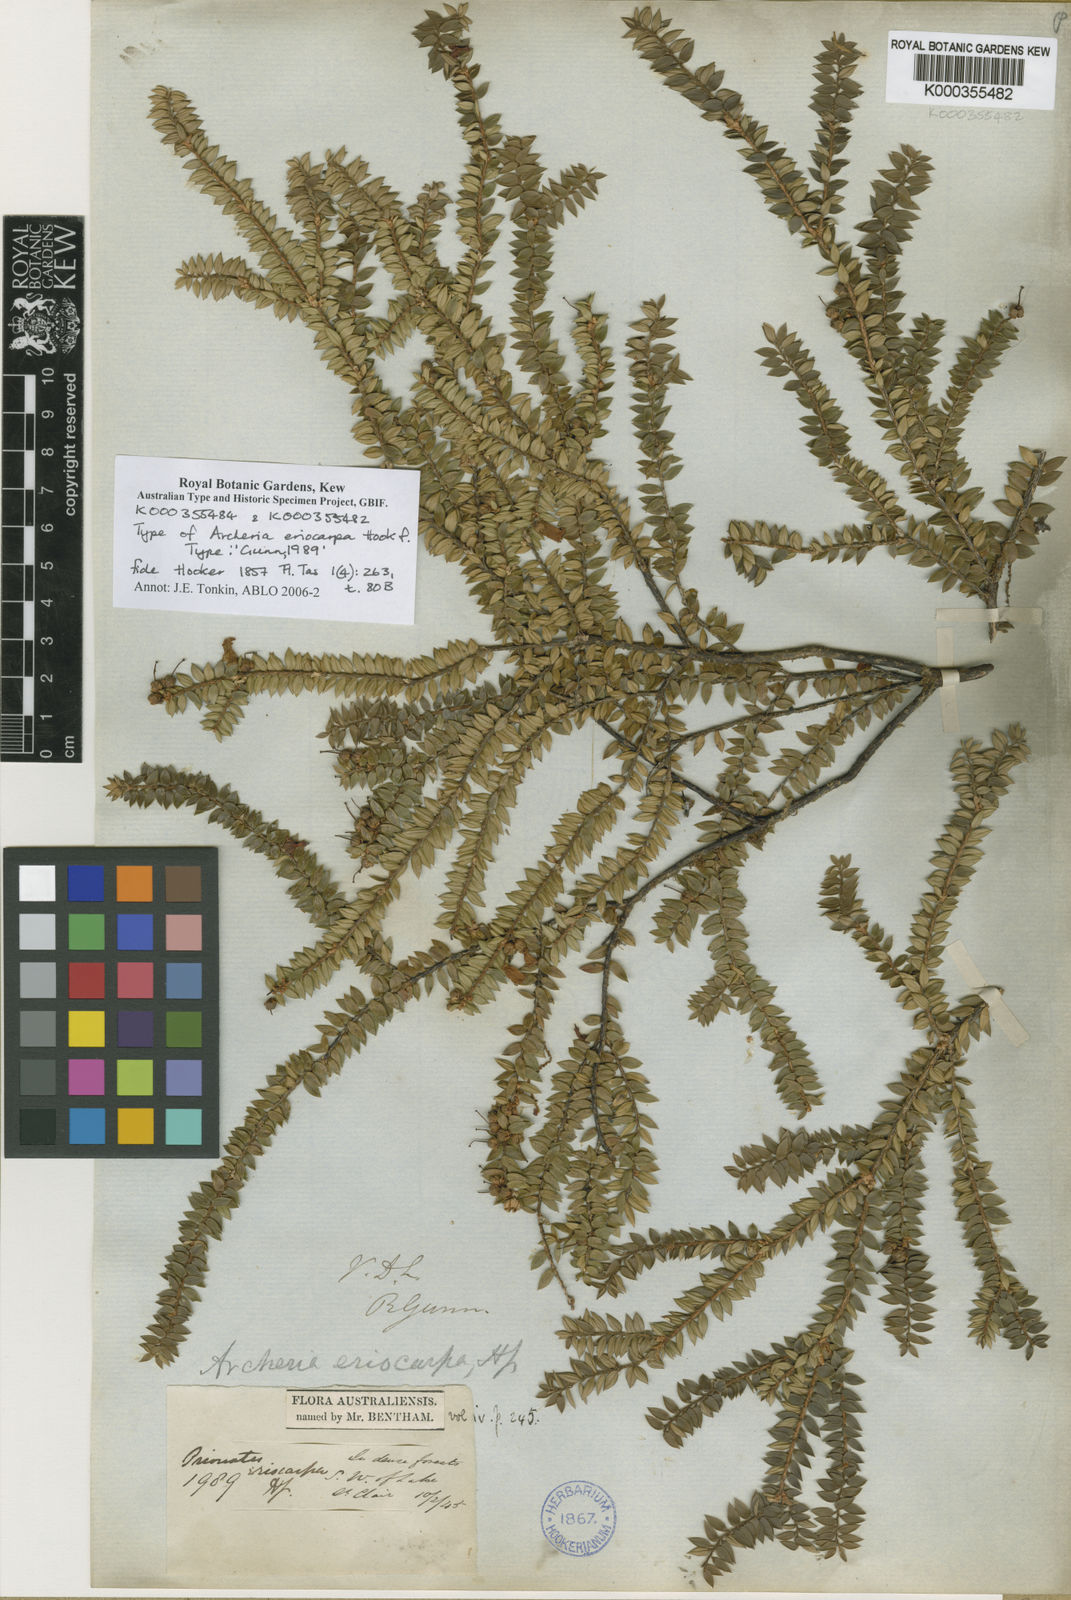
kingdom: Plantae
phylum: Tracheophyta
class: Magnoliopsida
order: Ericales
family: Ericaceae
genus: Archeria
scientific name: Archeria eriocarpa
